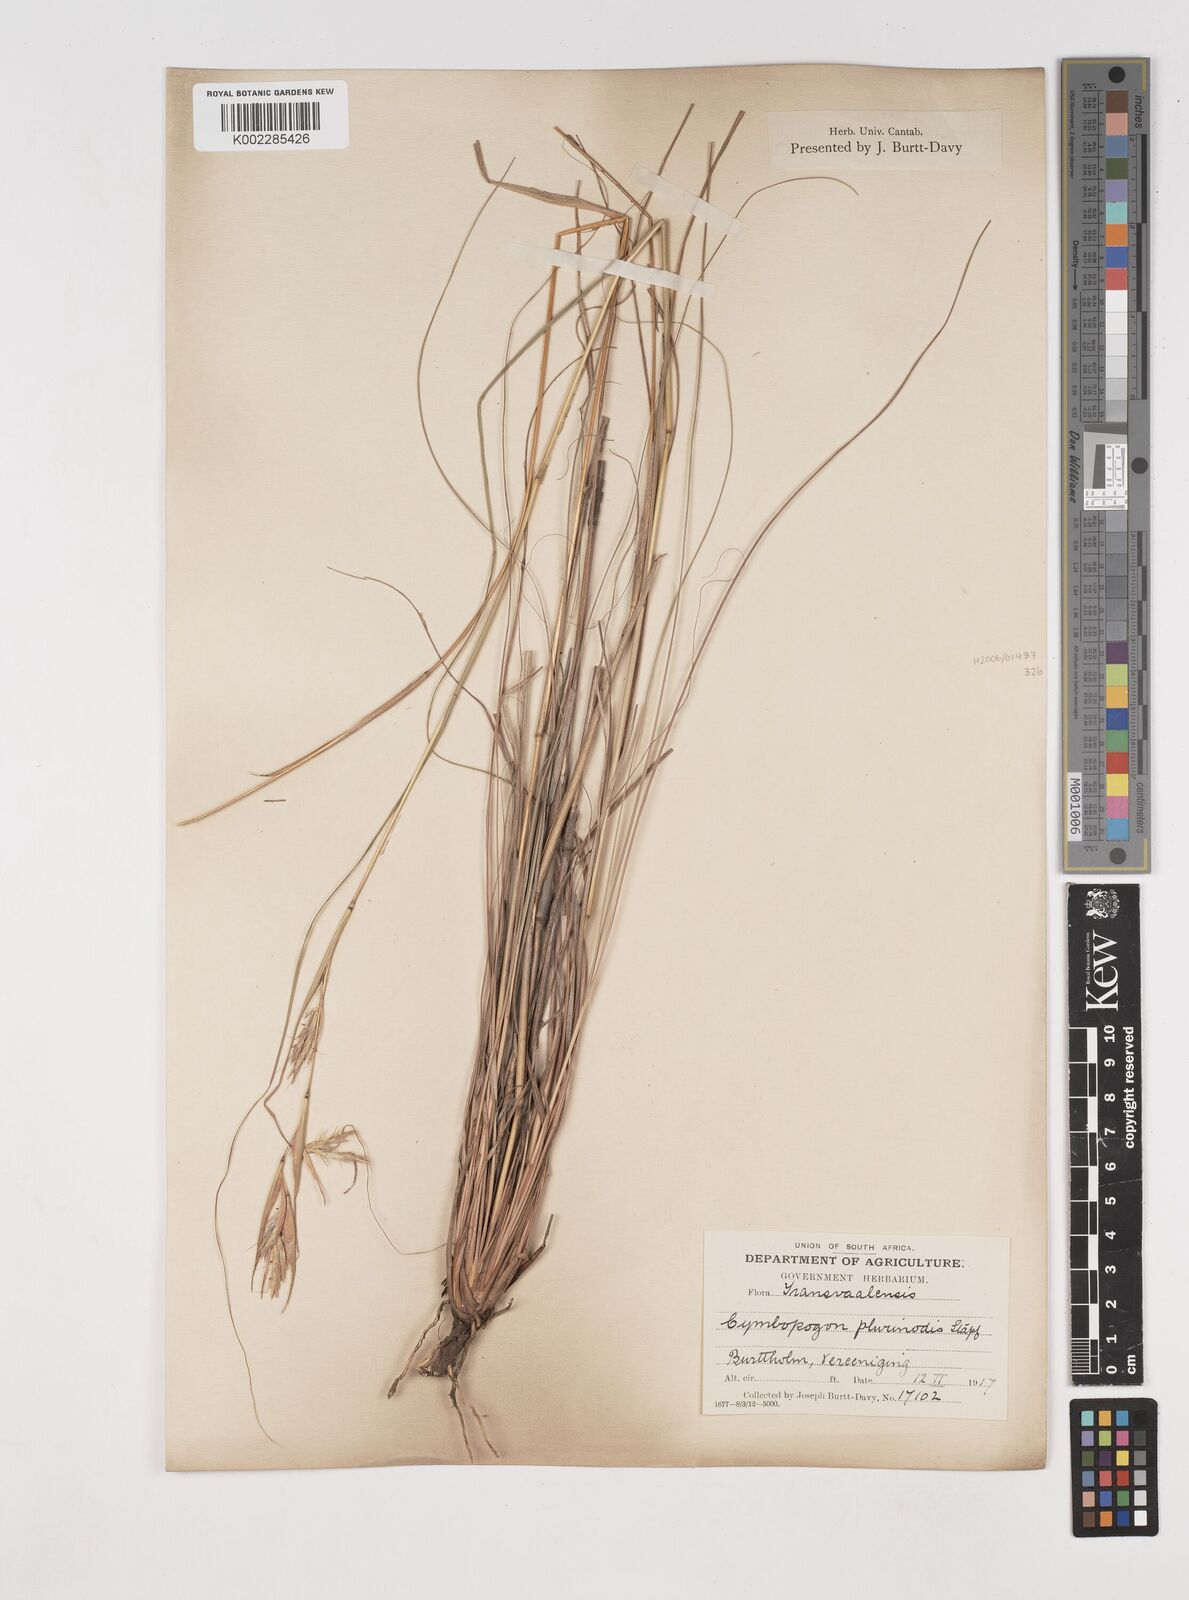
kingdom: Plantae
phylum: Tracheophyta
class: Liliopsida
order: Poales
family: Poaceae
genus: Cymbopogon
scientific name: Cymbopogon
